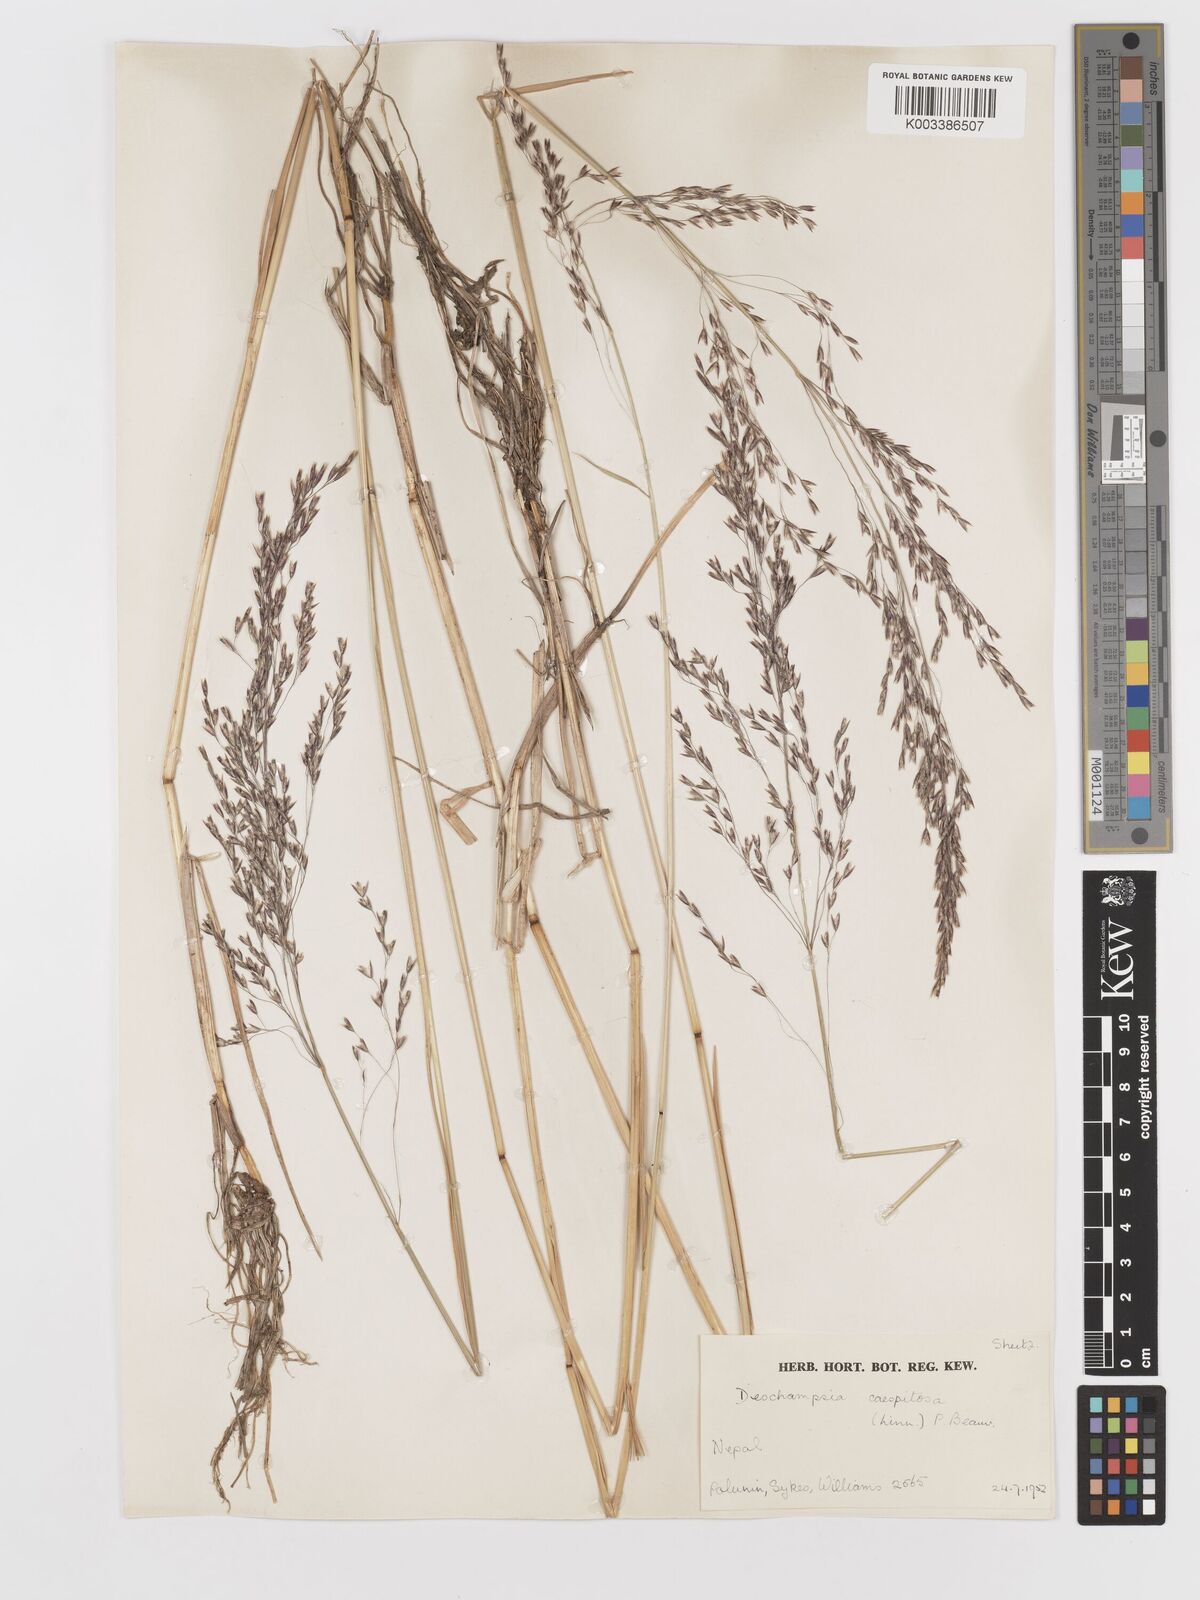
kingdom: Plantae
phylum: Tracheophyta
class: Liliopsida
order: Poales
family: Poaceae
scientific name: Poaceae
